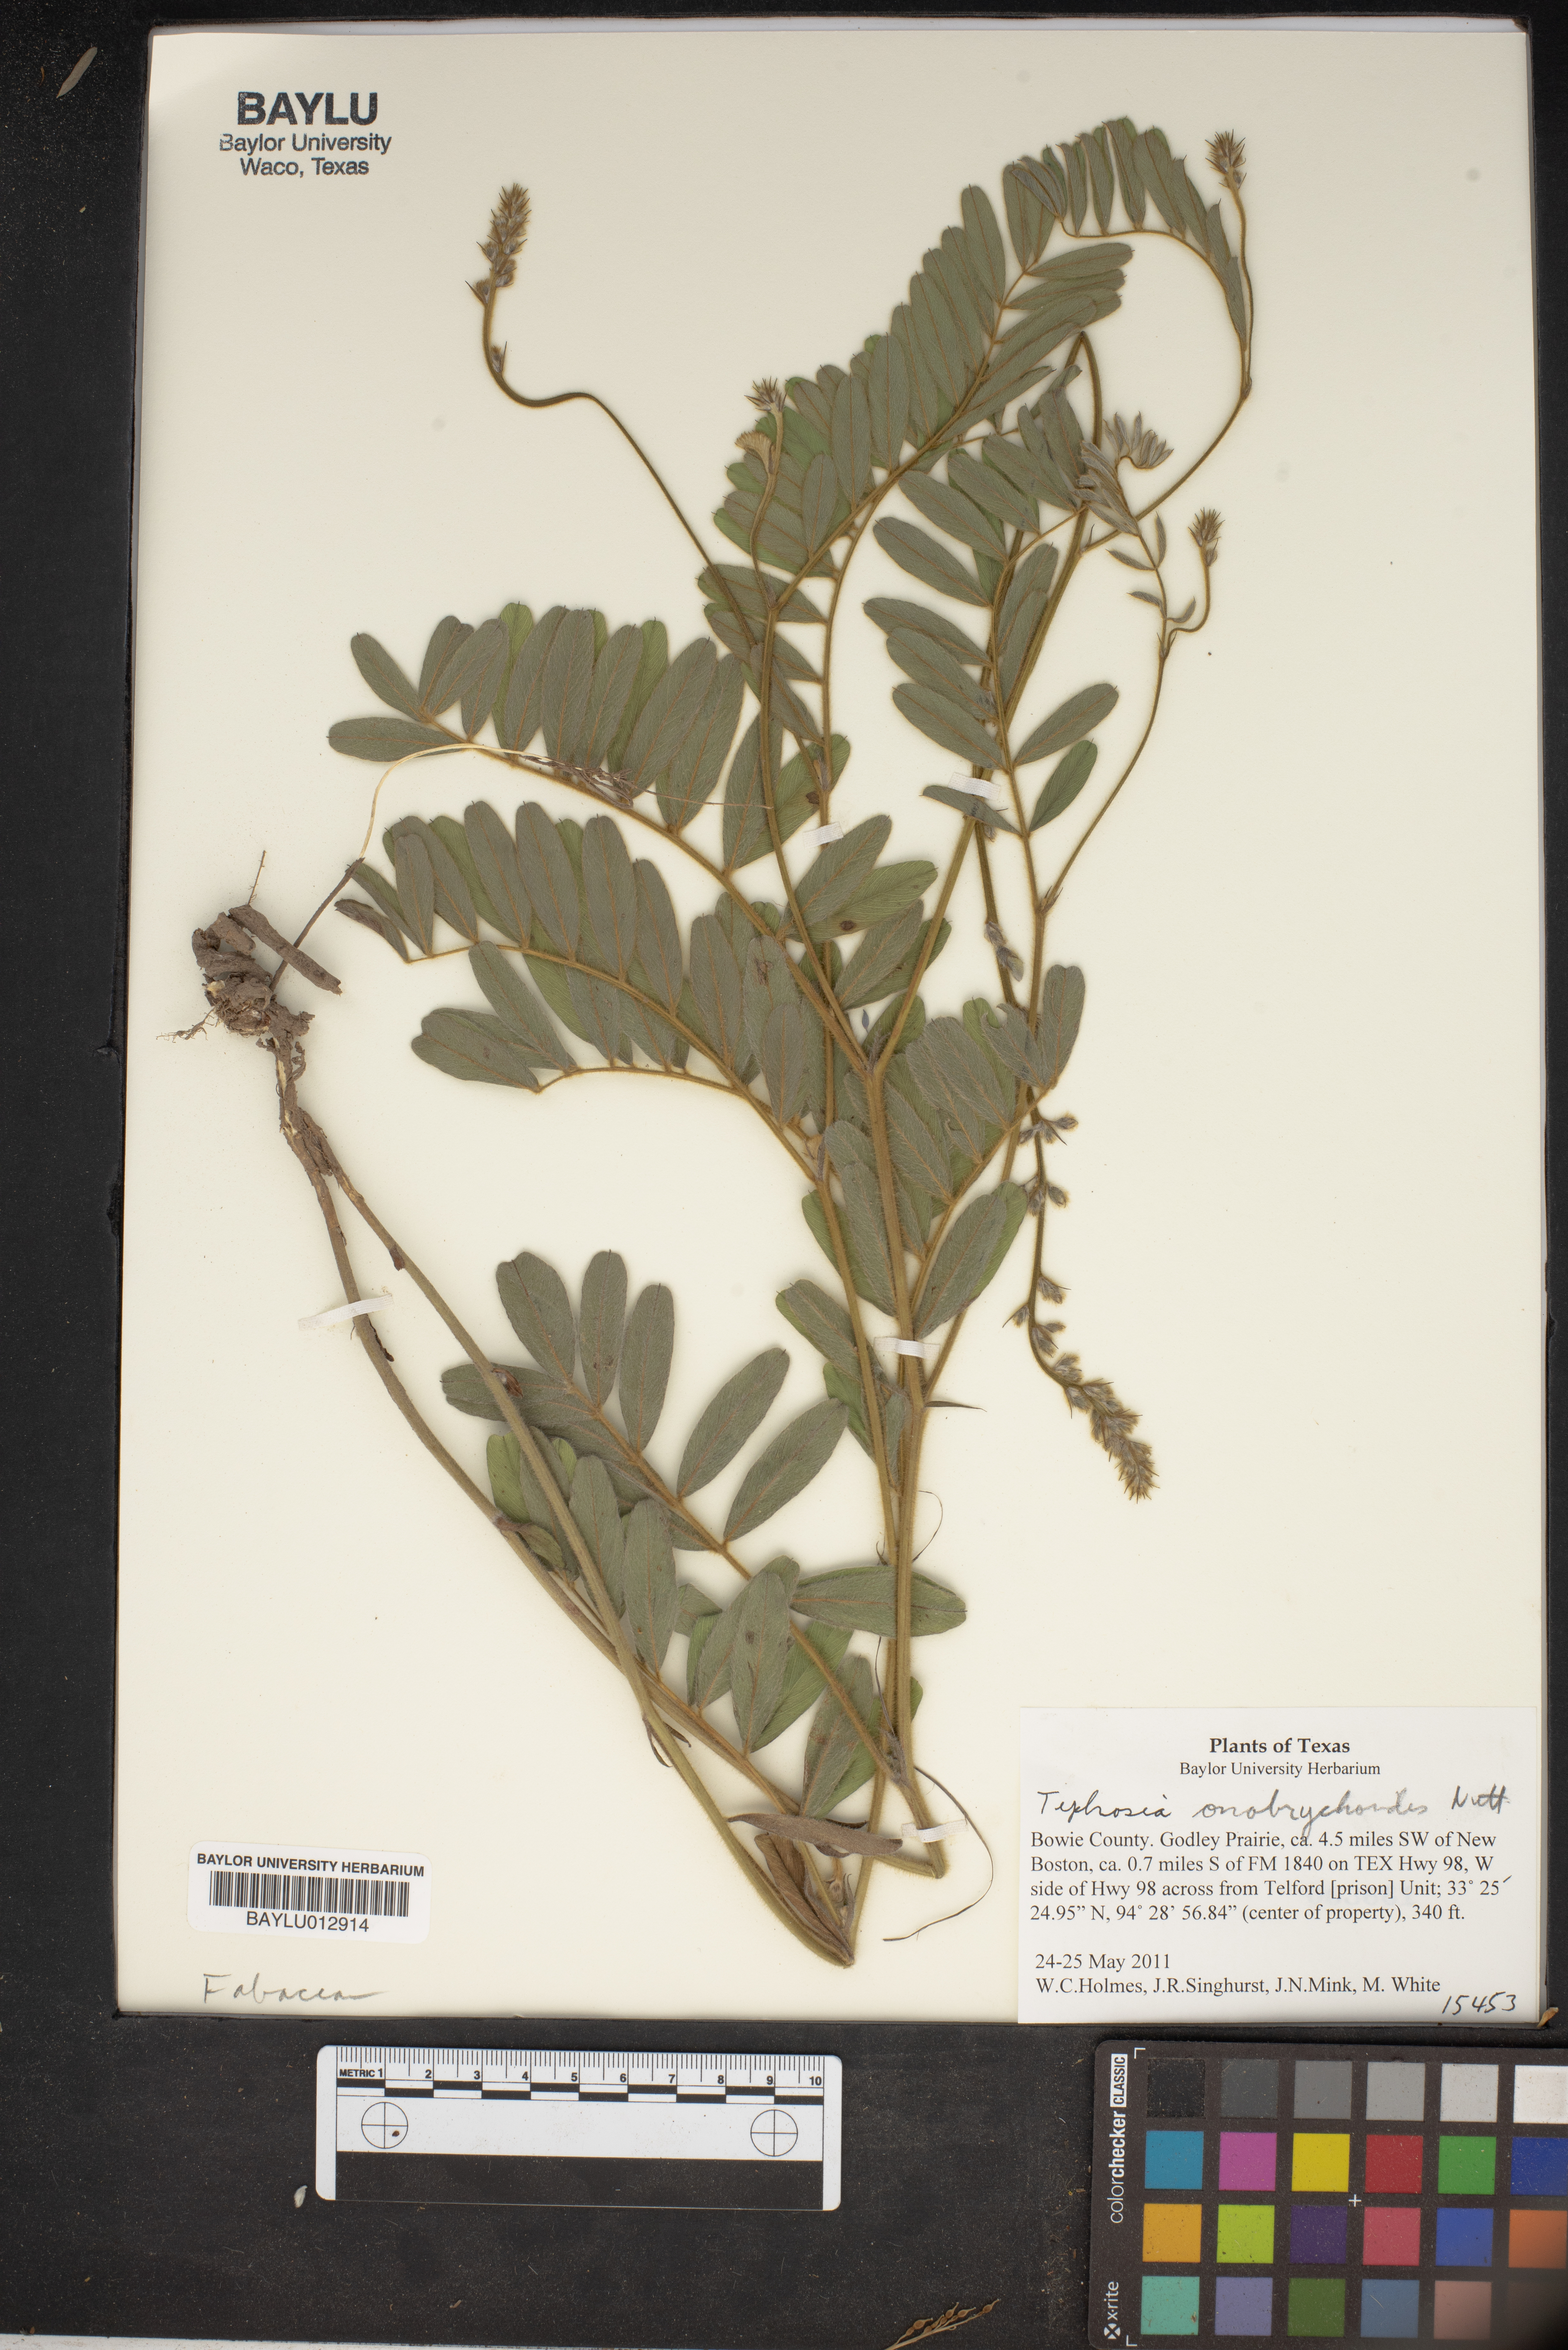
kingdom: Plantae
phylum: Tracheophyta
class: Magnoliopsida
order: Fabales
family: Fabaceae
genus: Tephrosia
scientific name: Tephrosia onobrychoides
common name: Multi-bloom hoary-pea
